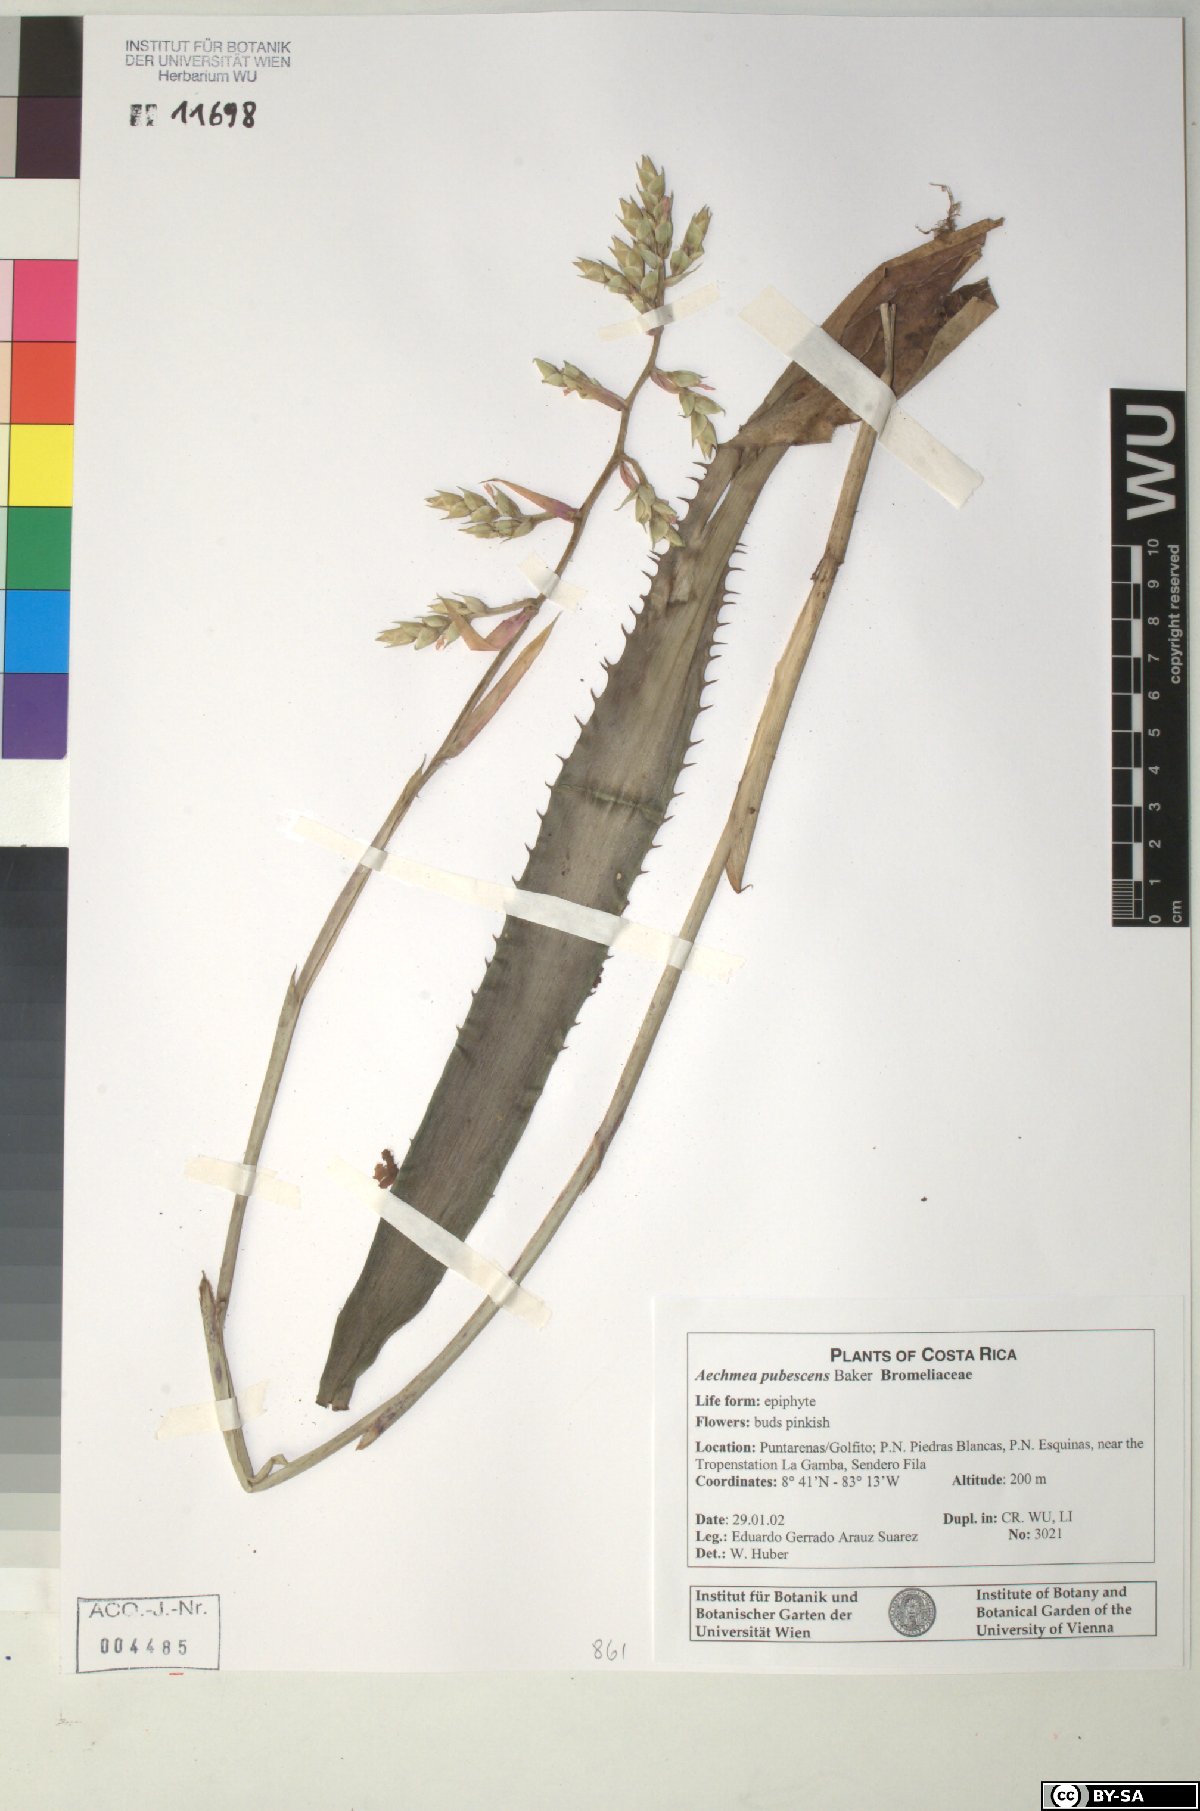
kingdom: Plantae
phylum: Tracheophyta
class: Liliopsida
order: Poales
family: Bromeliaceae
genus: Aechmea
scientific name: Aechmea pubescens
